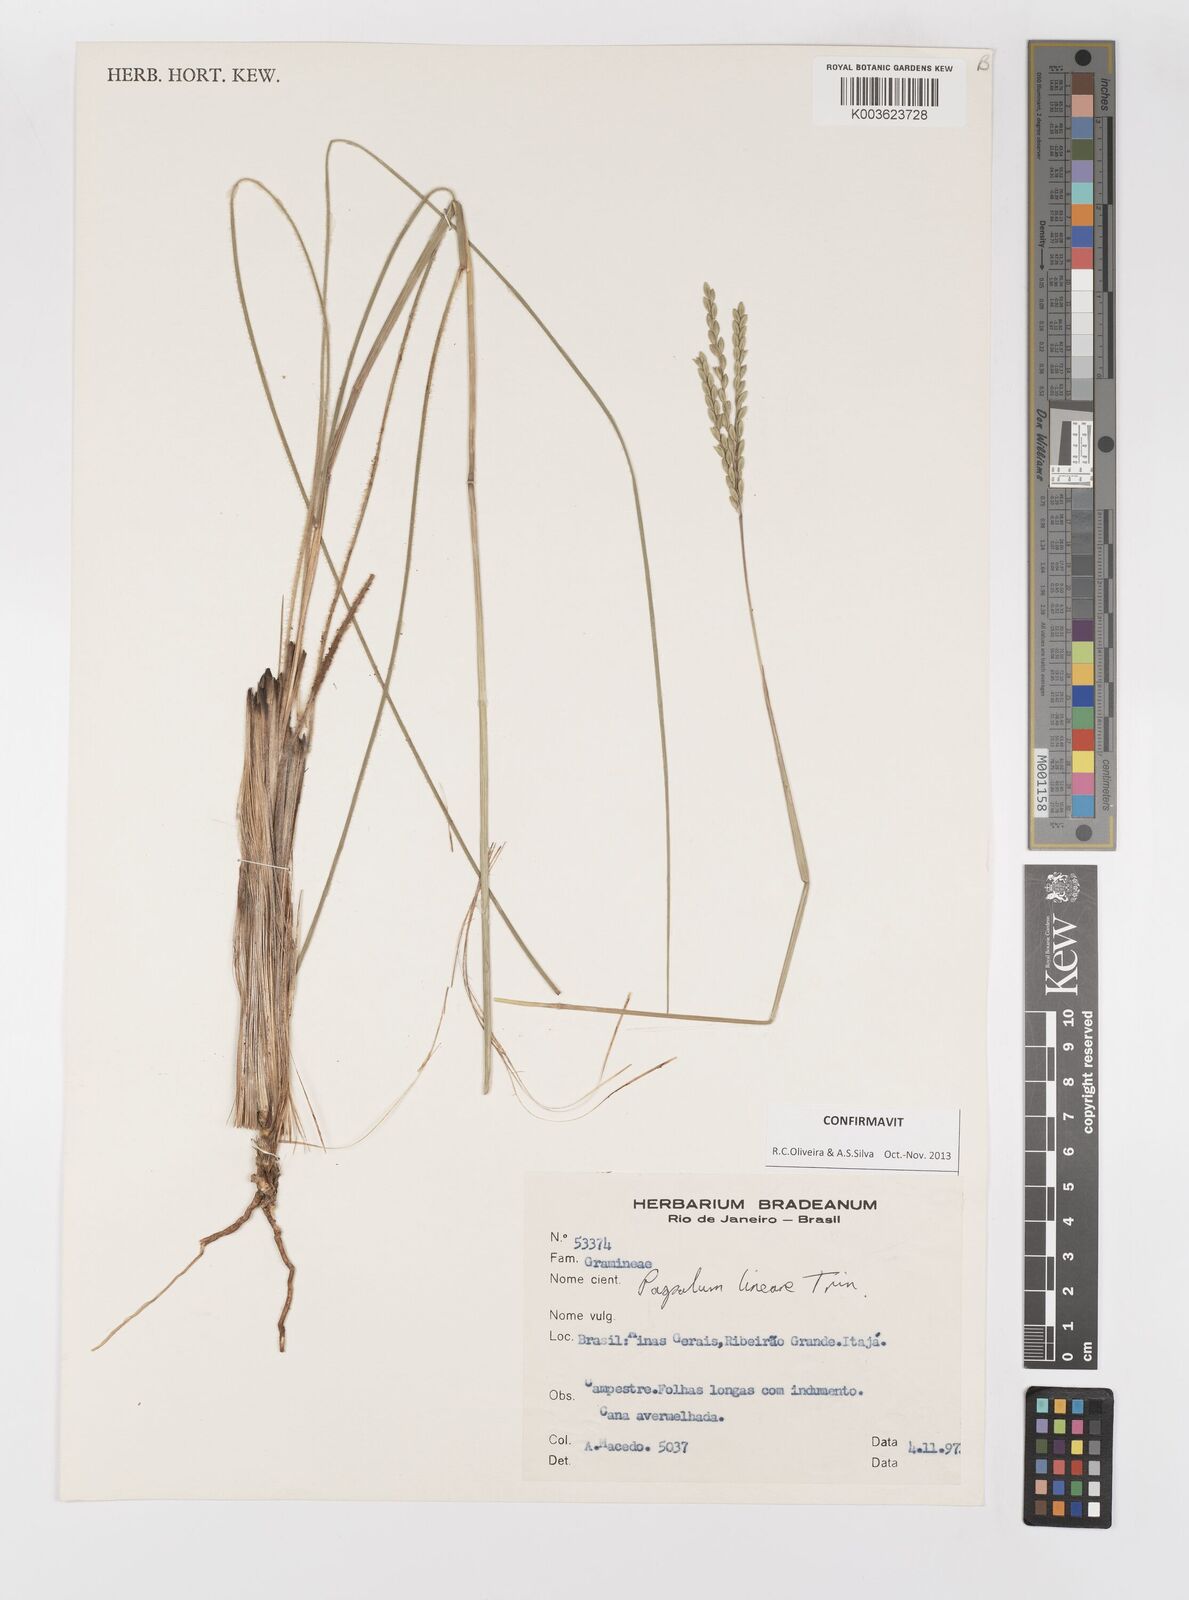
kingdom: Plantae
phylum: Tracheophyta
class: Liliopsida
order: Poales
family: Poaceae
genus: Paspalum
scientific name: Paspalum lineare
